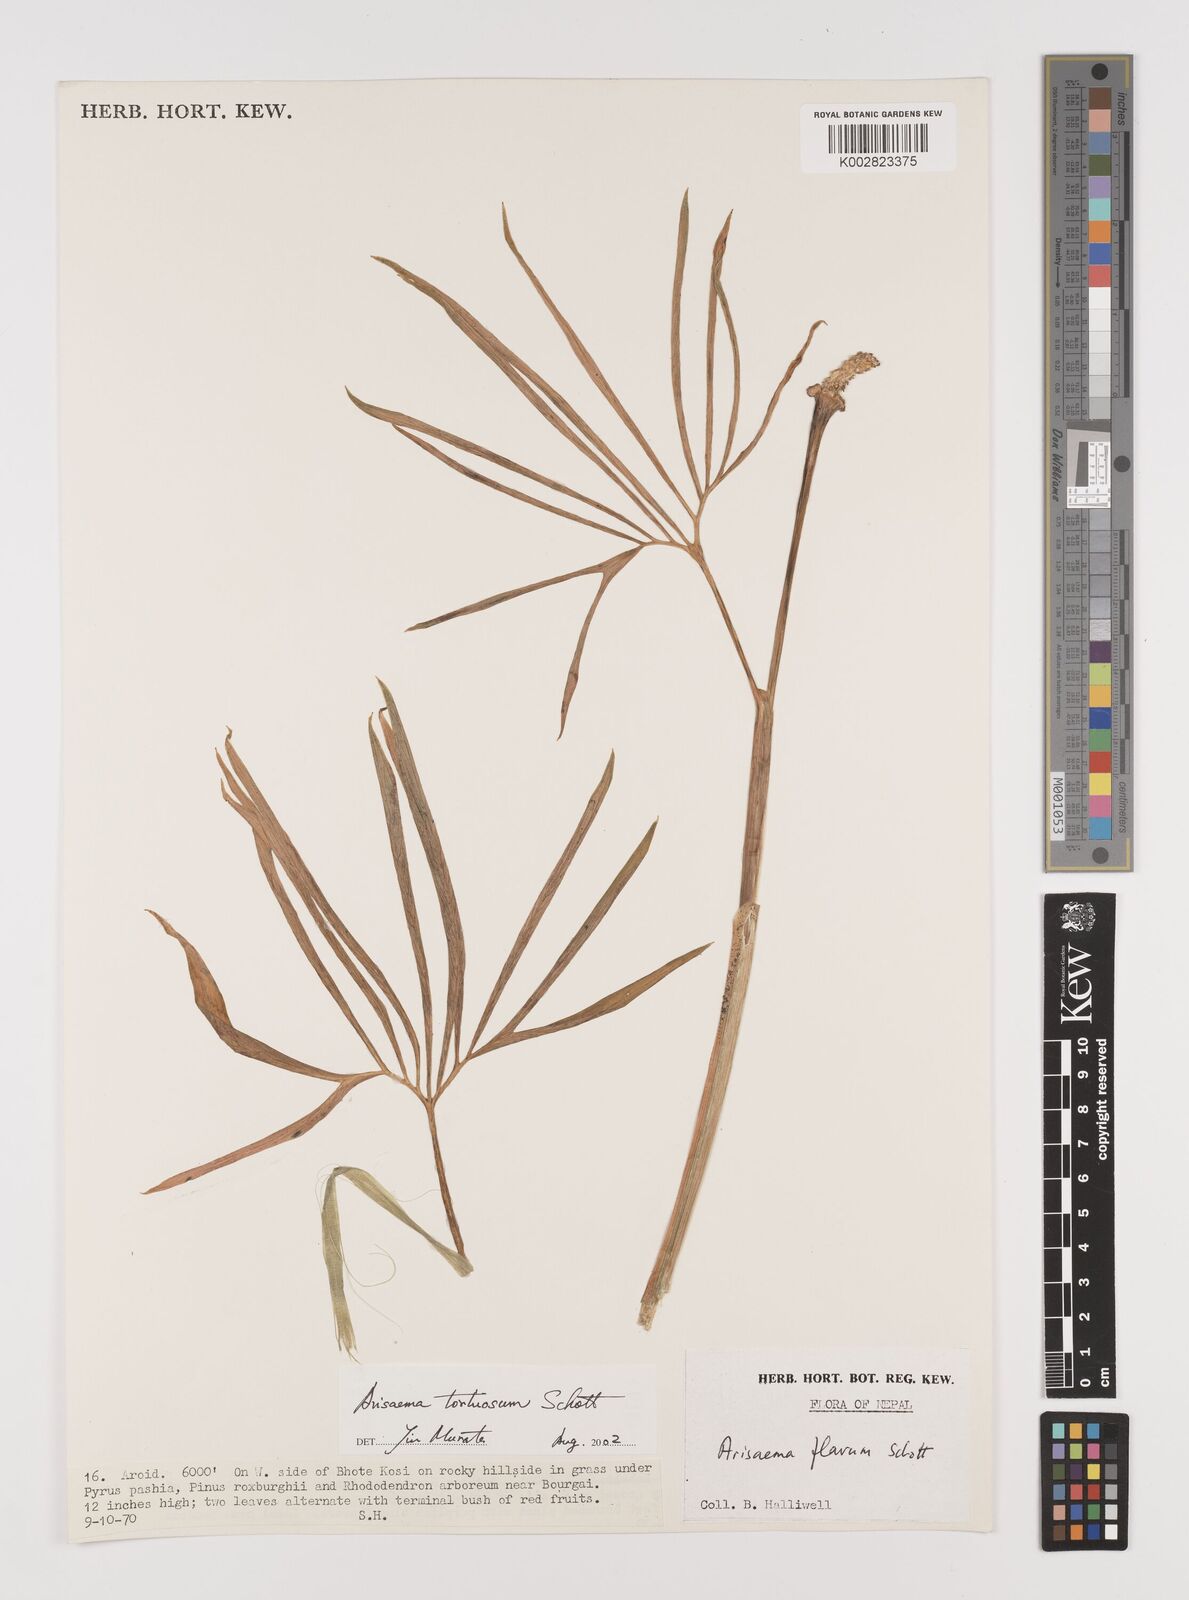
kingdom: Plantae
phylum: Tracheophyta
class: Liliopsida
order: Alismatales
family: Araceae
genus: Arisaema
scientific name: Arisaema tortuosum
